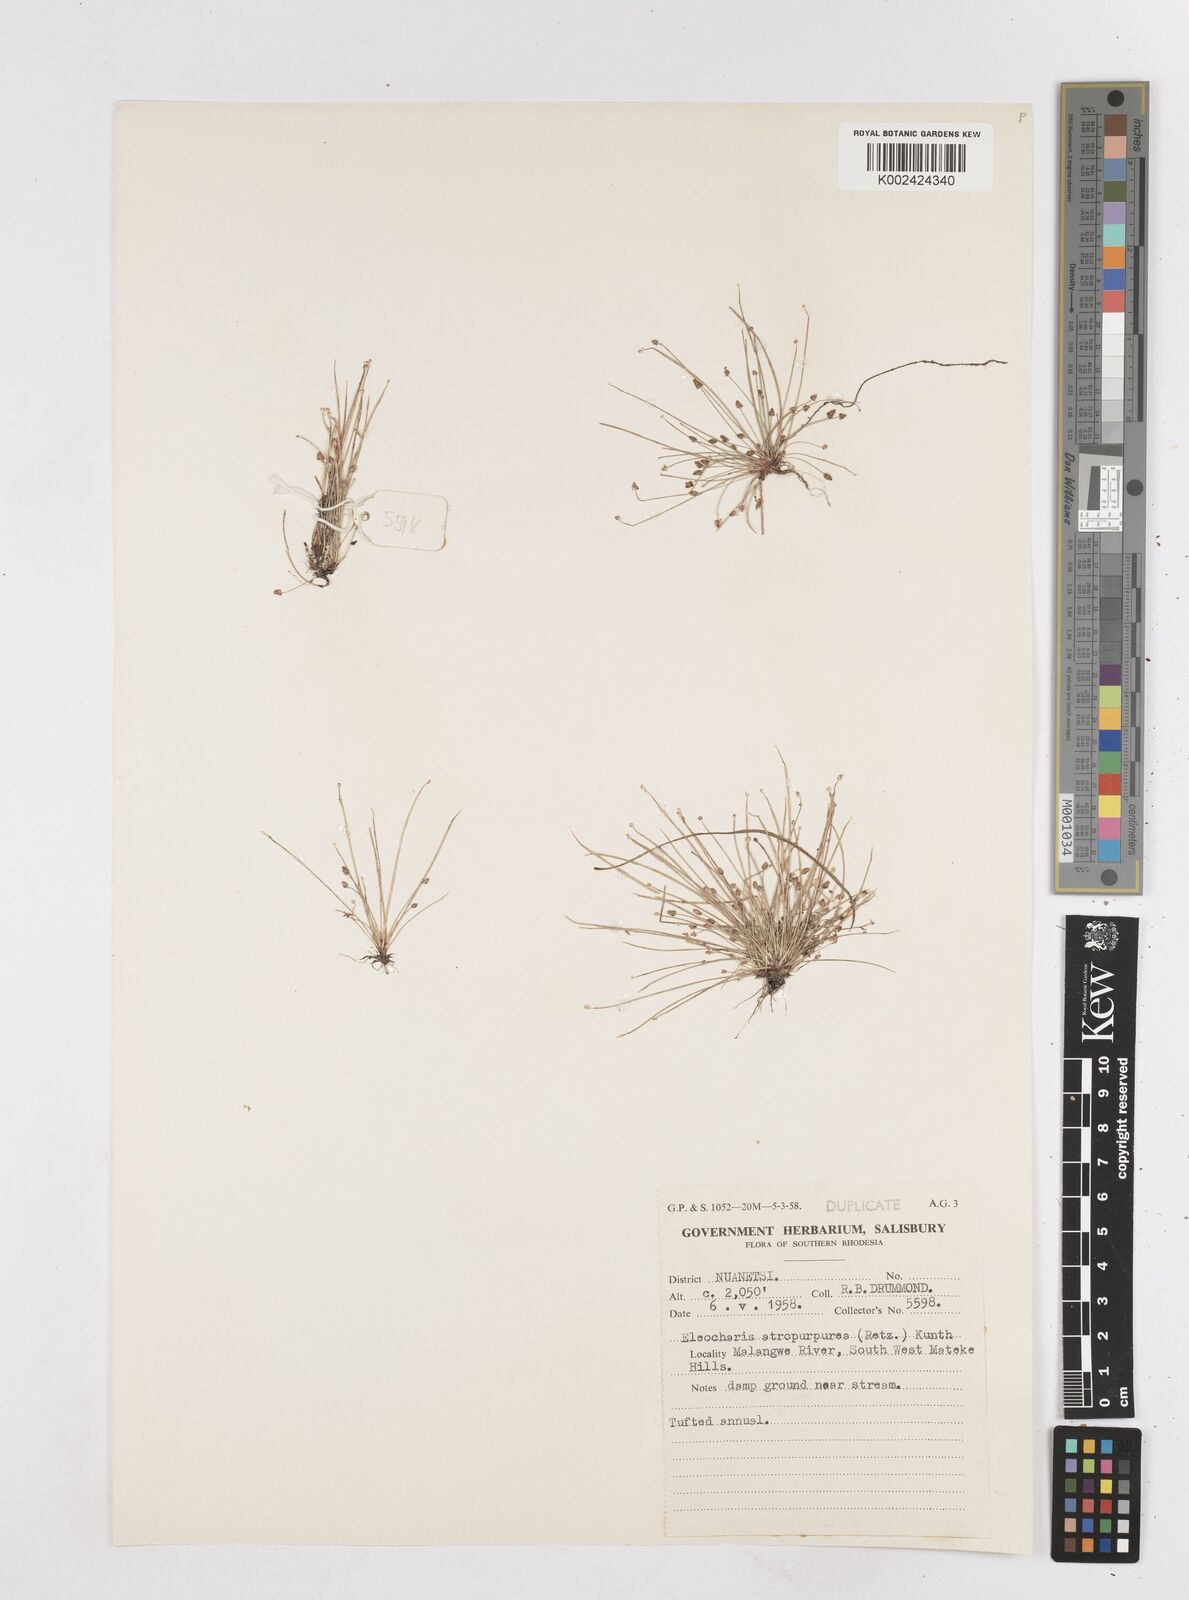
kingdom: Plantae
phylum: Tracheophyta
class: Liliopsida
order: Poales
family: Cyperaceae
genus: Eleocharis
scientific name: Eleocharis atropurpurea
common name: Purple spikerush
